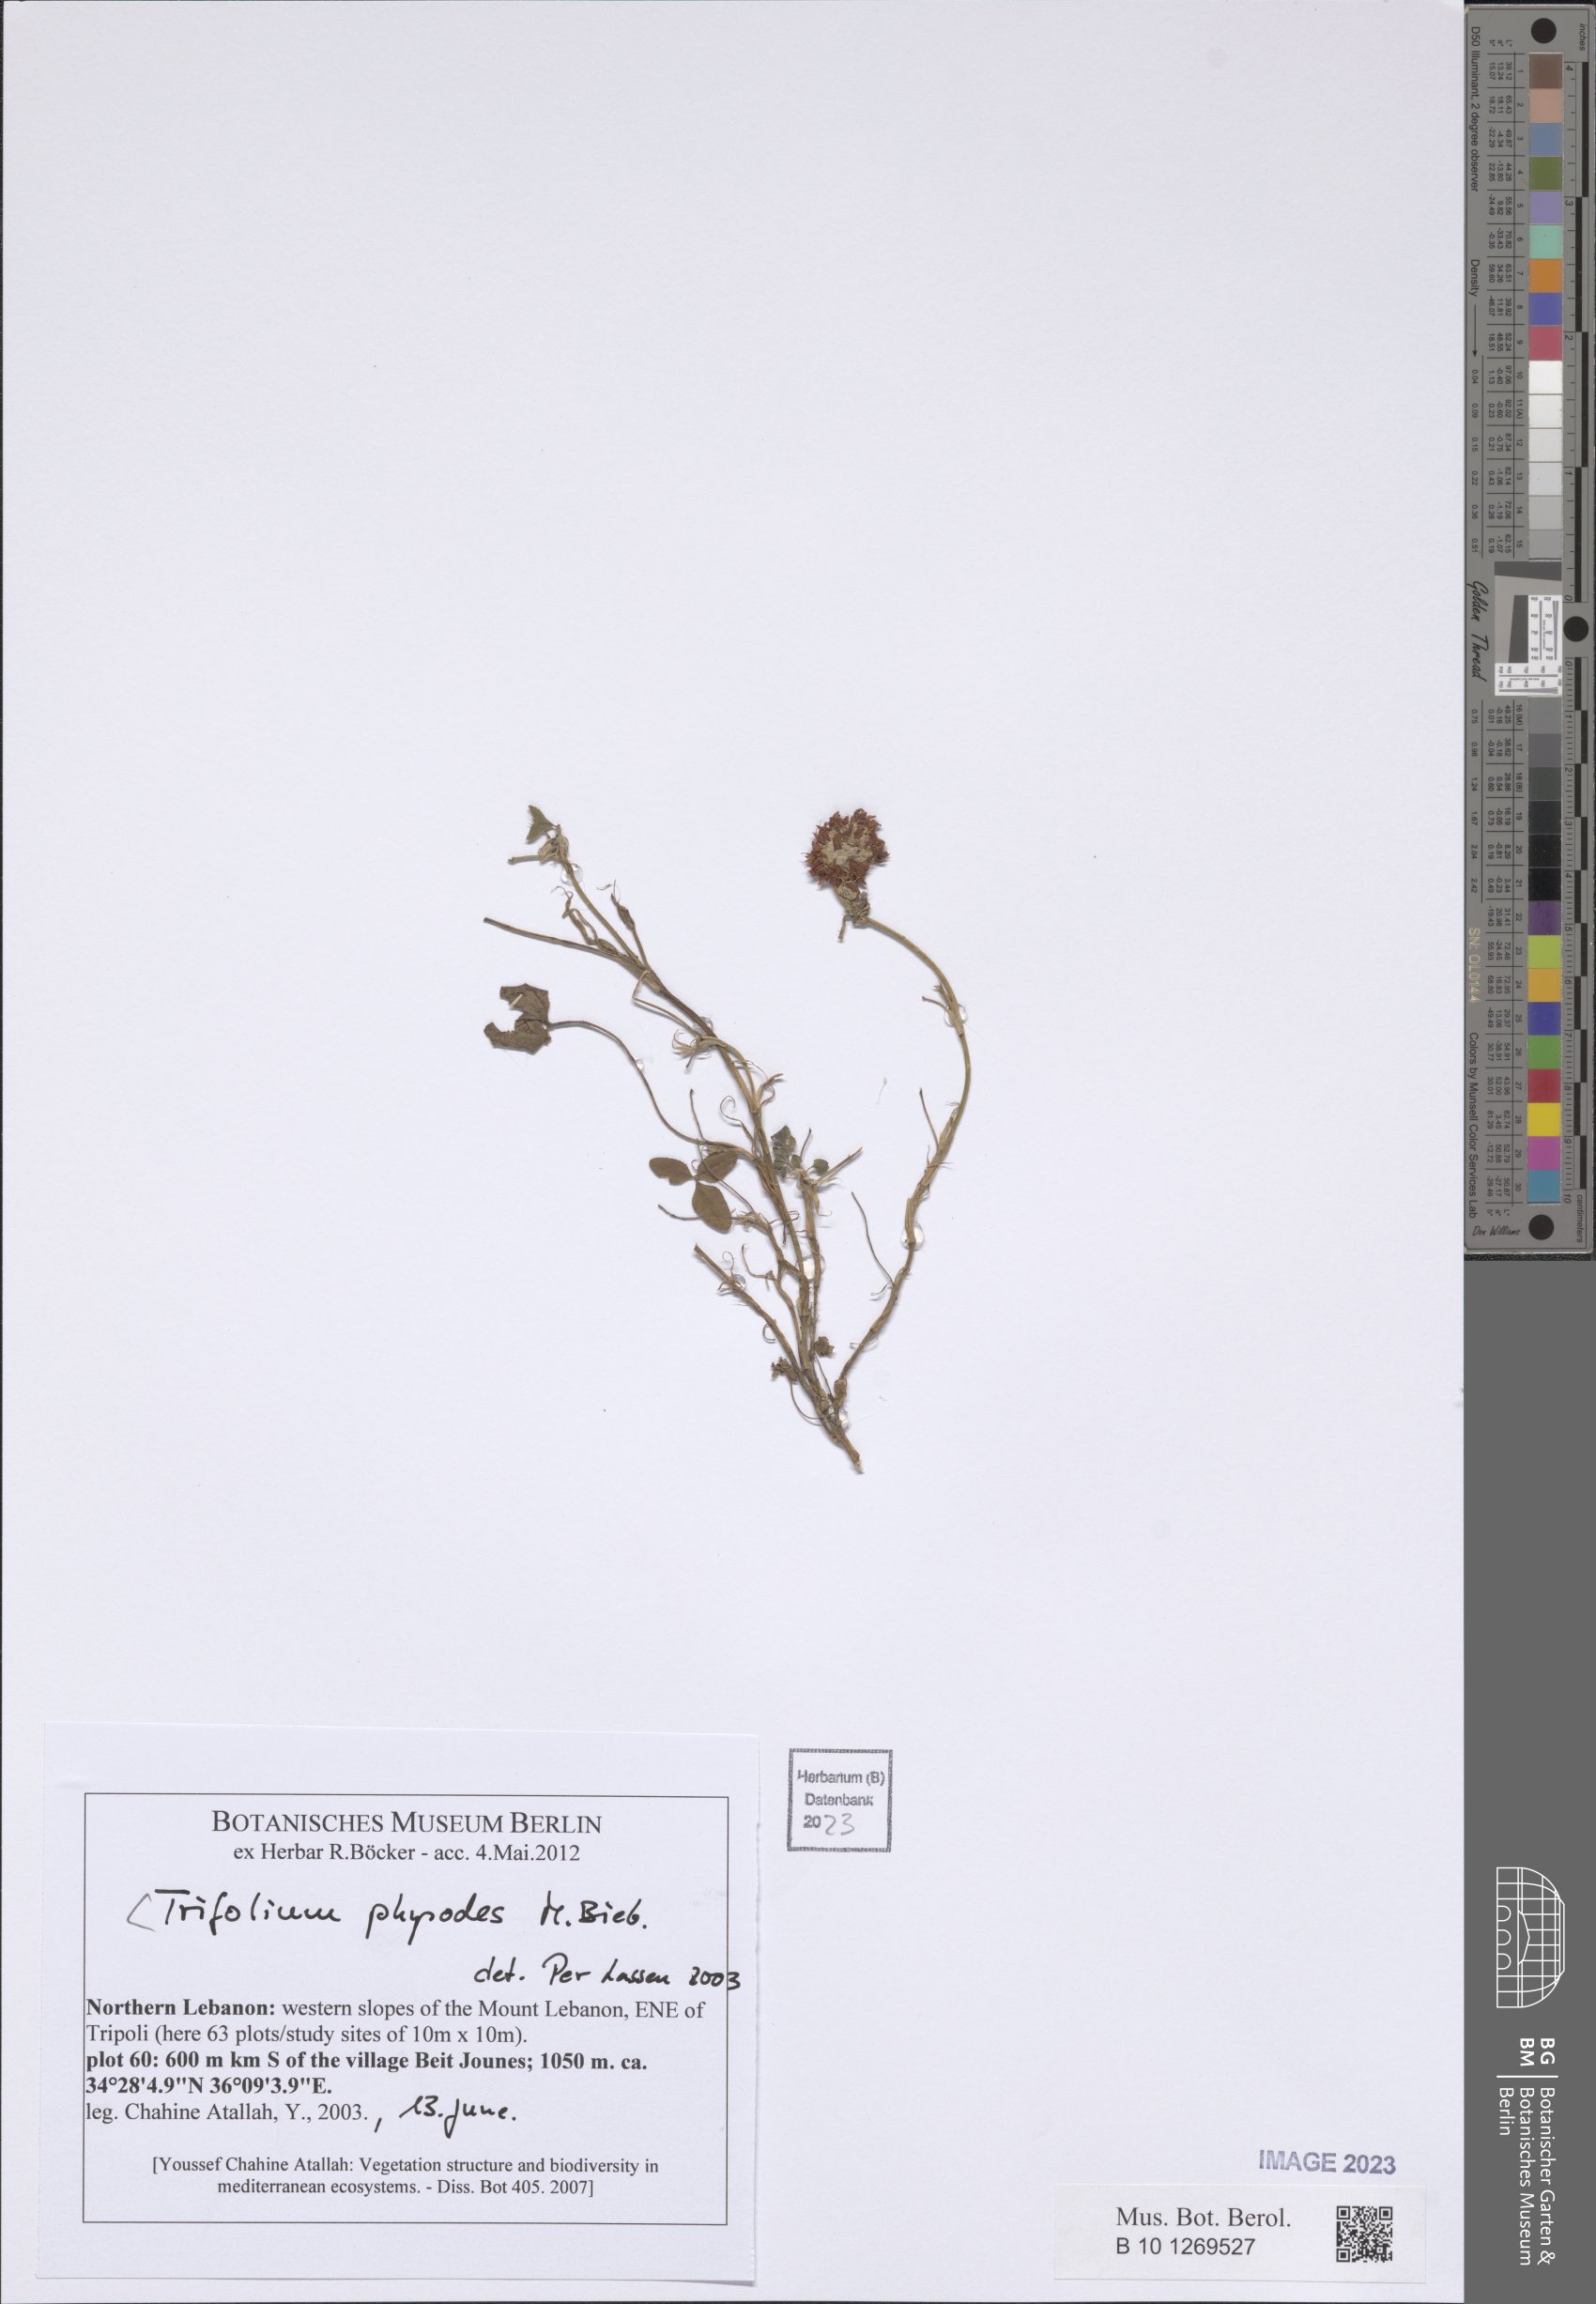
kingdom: Plantae
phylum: Tracheophyta
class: Magnoliopsida
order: Fabales
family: Fabaceae
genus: Trifolium
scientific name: Trifolium physodes
